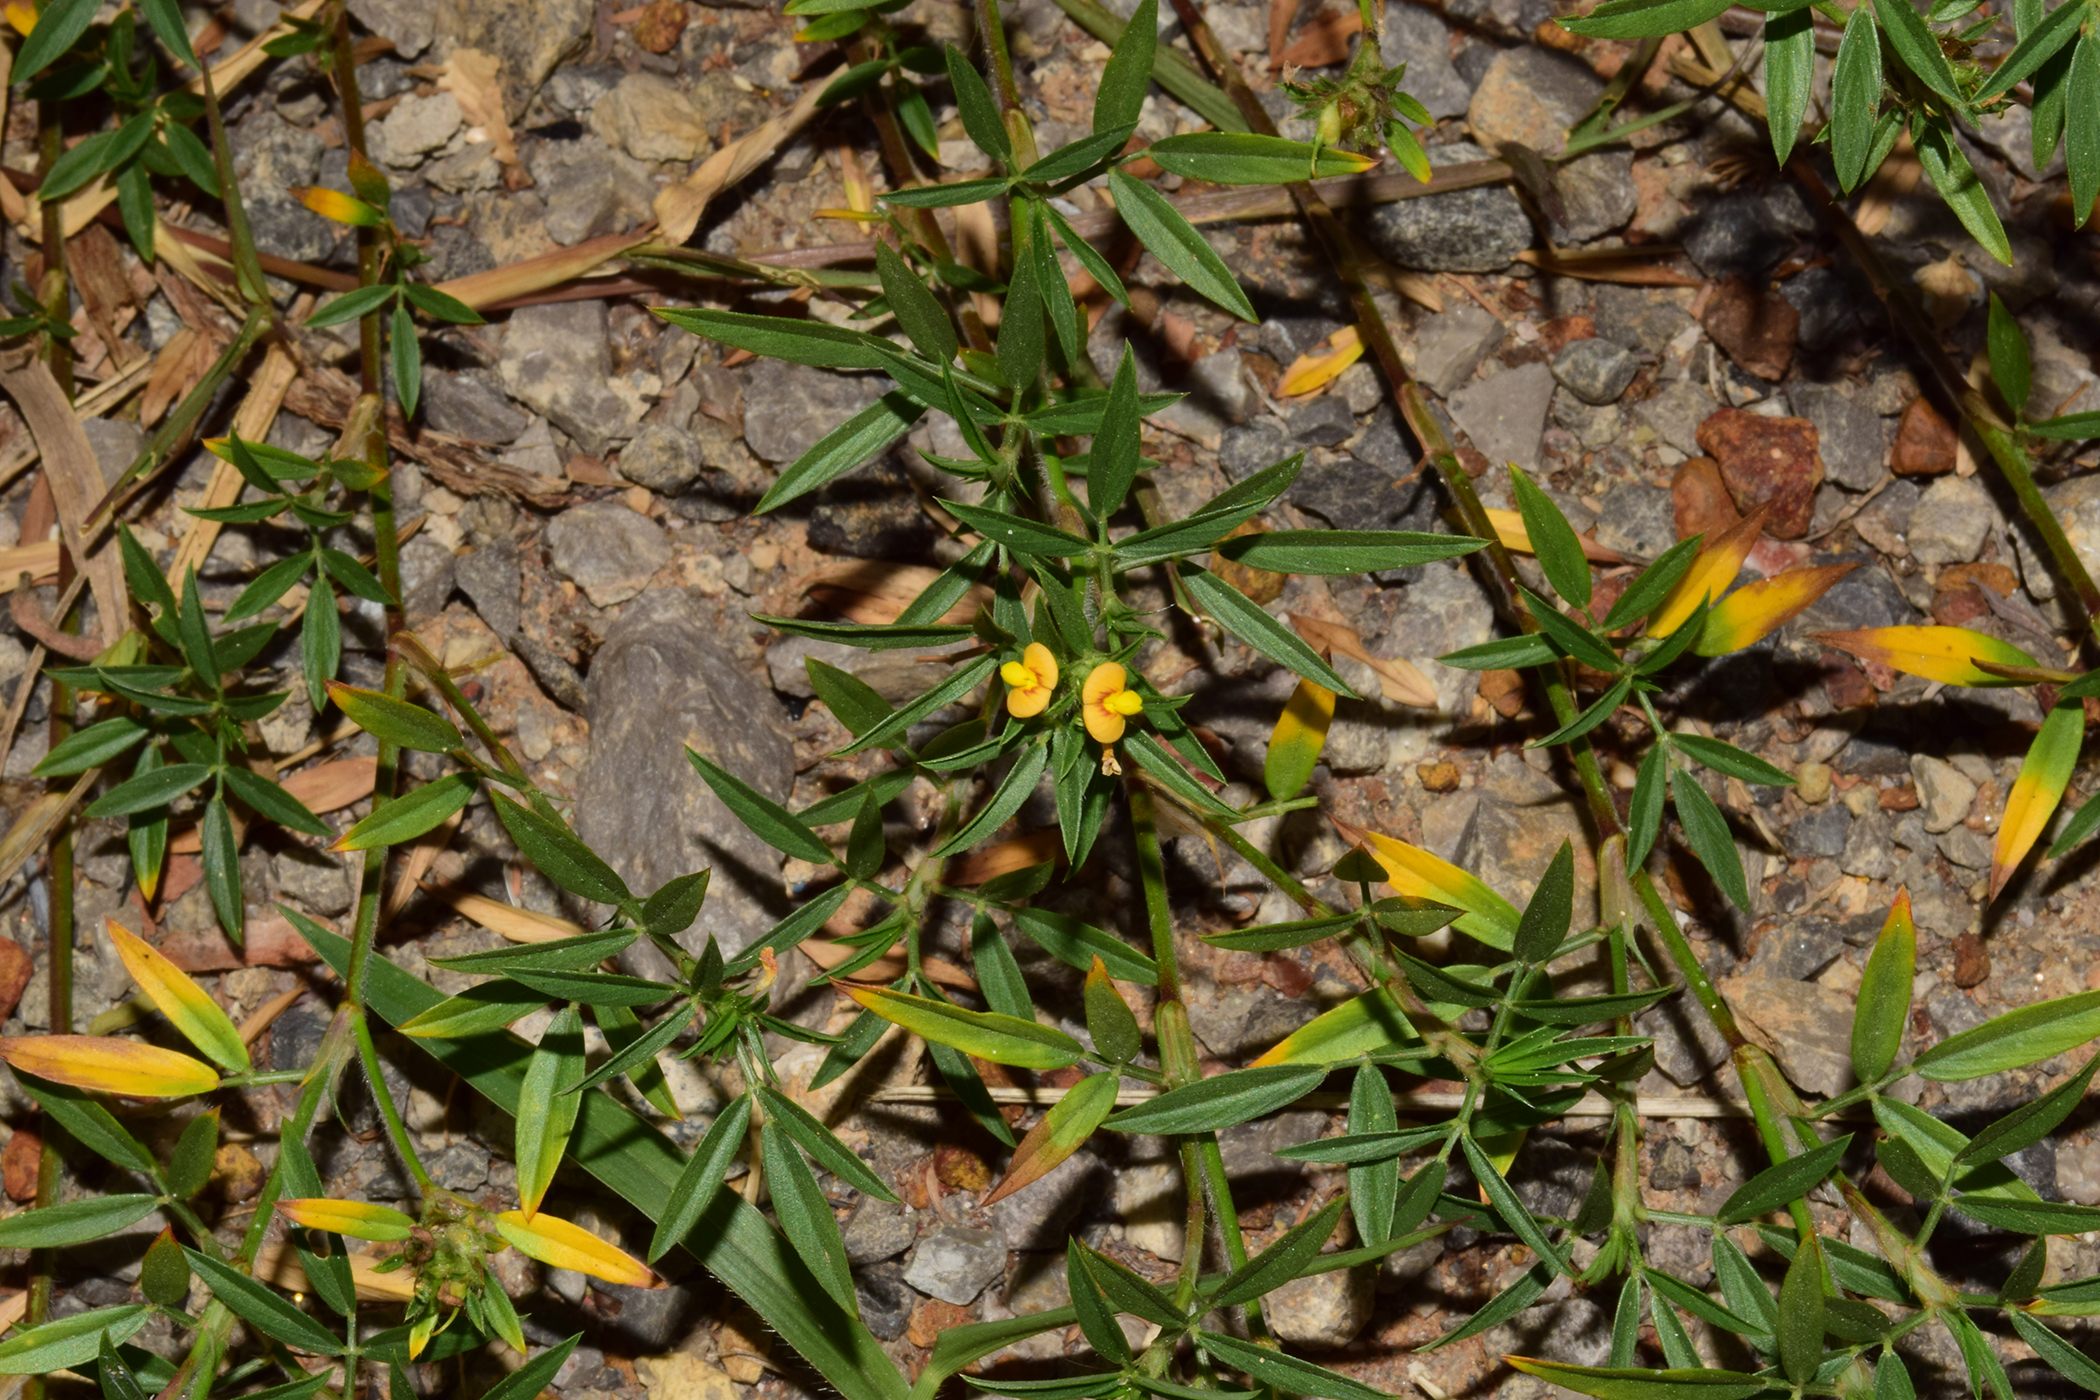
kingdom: Plantae
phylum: Tracheophyta
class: Magnoliopsida
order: Fabales
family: Fabaceae
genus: Stylosanthes
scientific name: Stylosanthes humilis
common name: Townsville stylo
